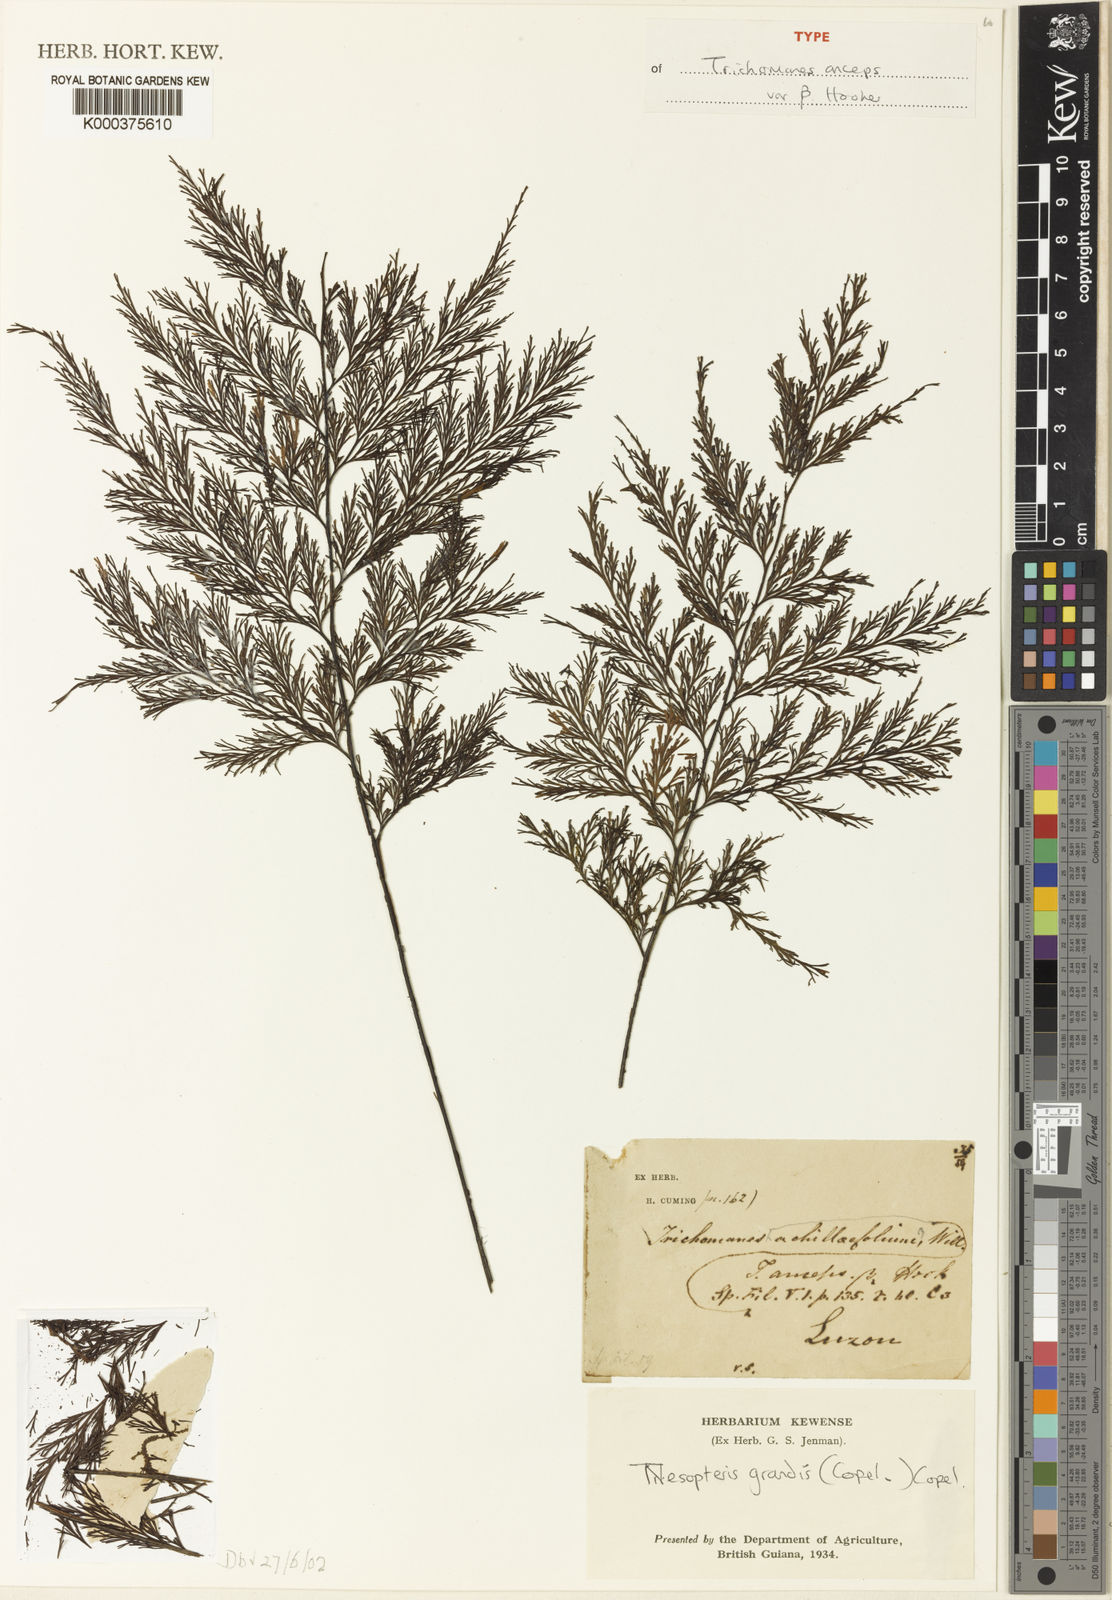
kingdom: Plantae
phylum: Tracheophyta
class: Polypodiopsida
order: Hymenophyllales
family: Hymenophyllaceae
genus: Crepidomanes
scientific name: Crepidomanes grande
